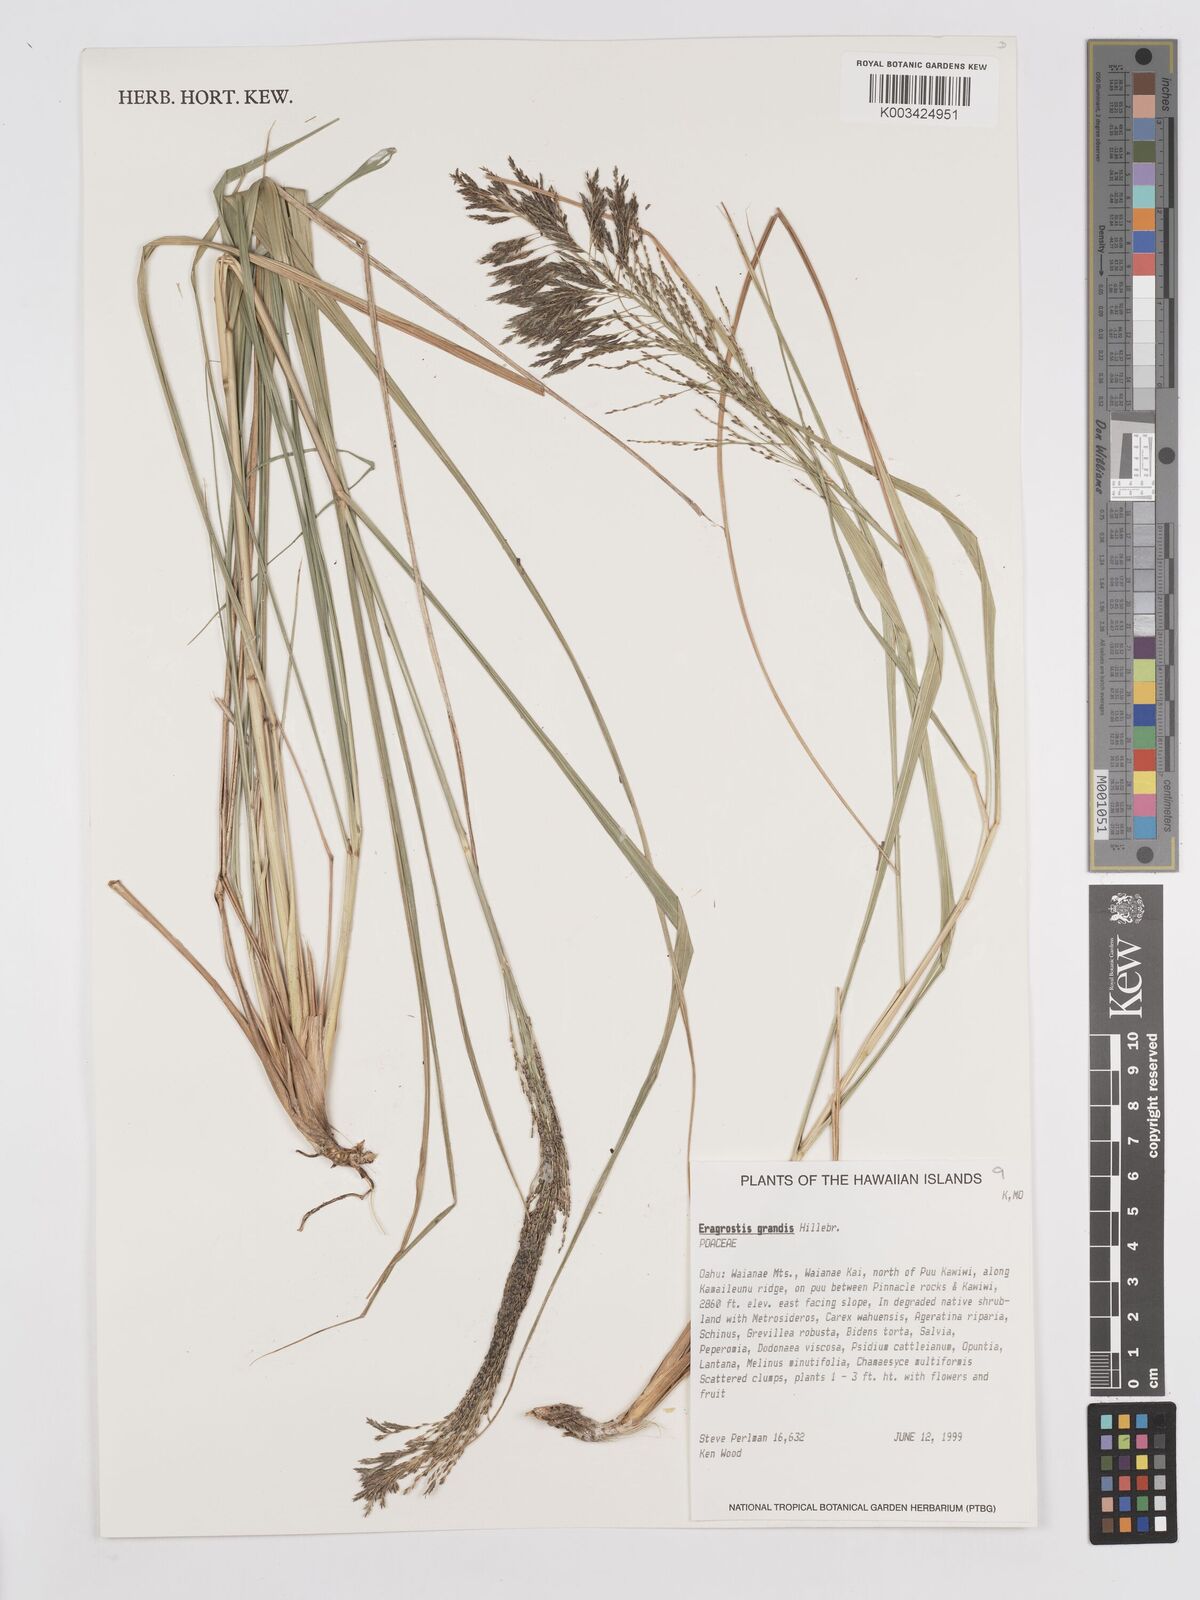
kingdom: Plantae
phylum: Tracheophyta
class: Liliopsida
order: Poales
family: Poaceae
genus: Eragrostis
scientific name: Eragrostis grandis
